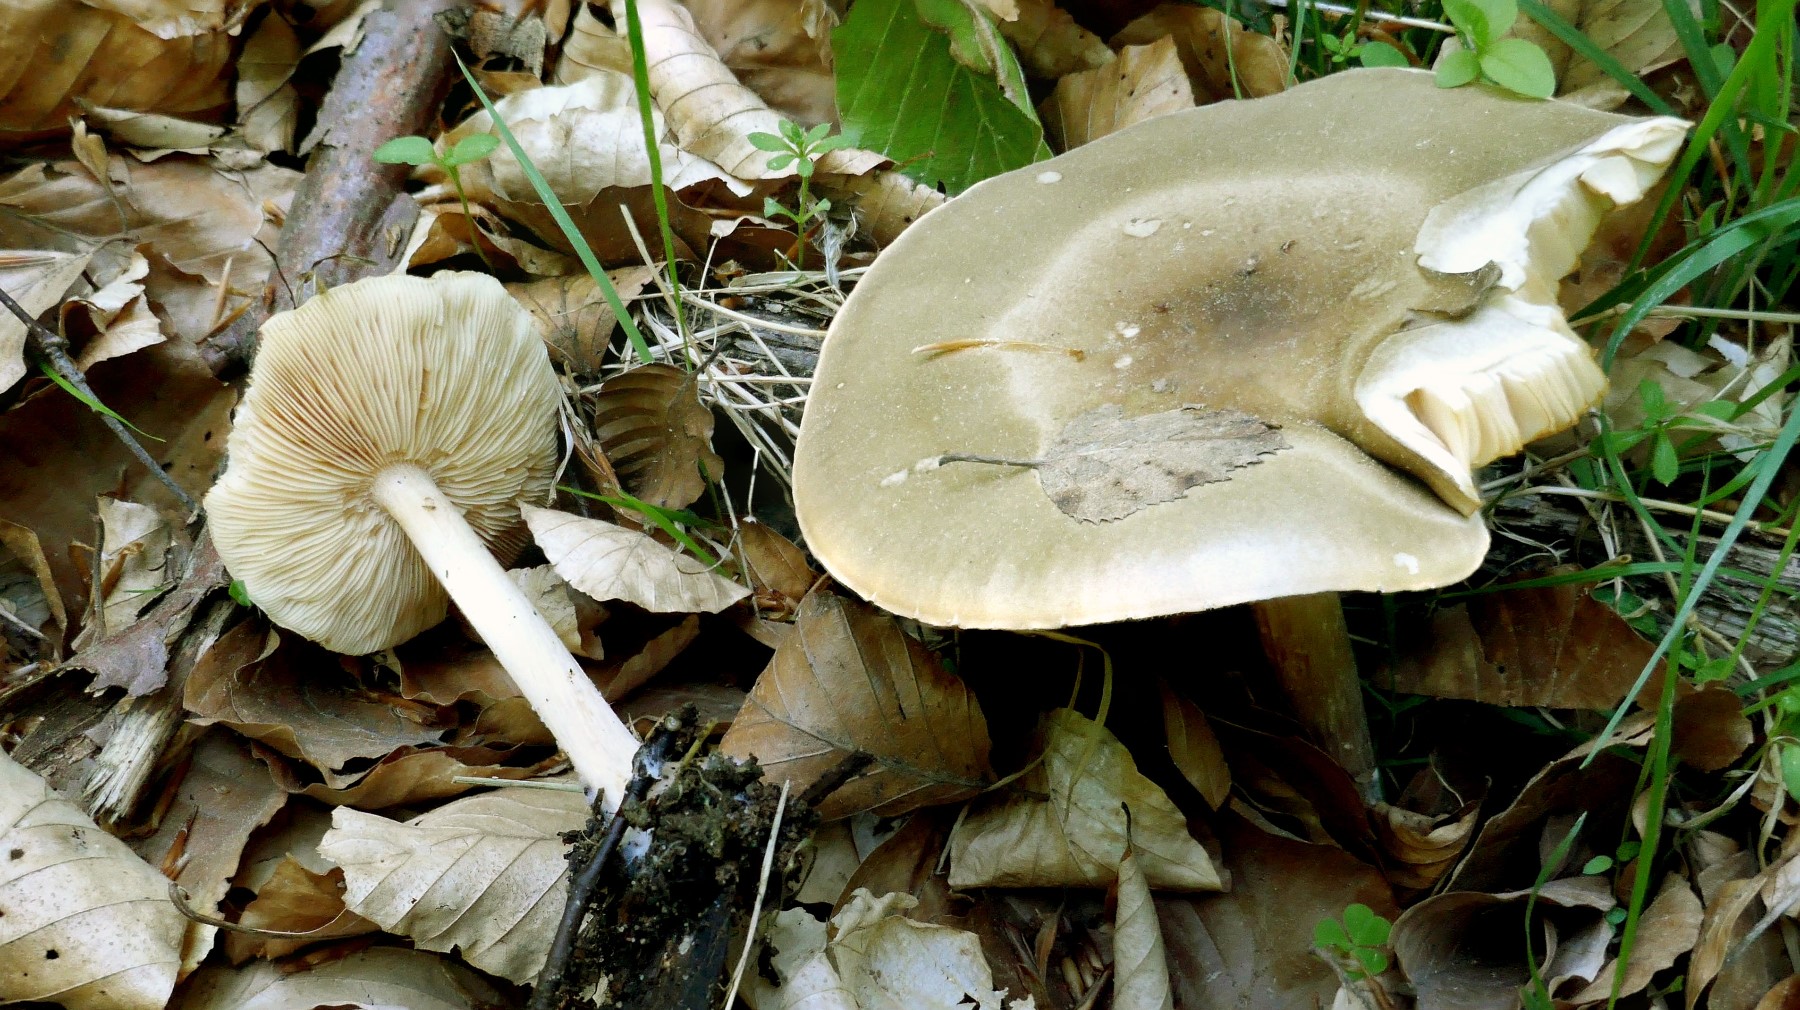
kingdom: Fungi
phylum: Basidiomycota
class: Agaricomycetes
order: Agaricales
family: Tricholomataceae
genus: Melanoleuca
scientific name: Melanoleuca cognata
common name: gyldengrå munkehat
